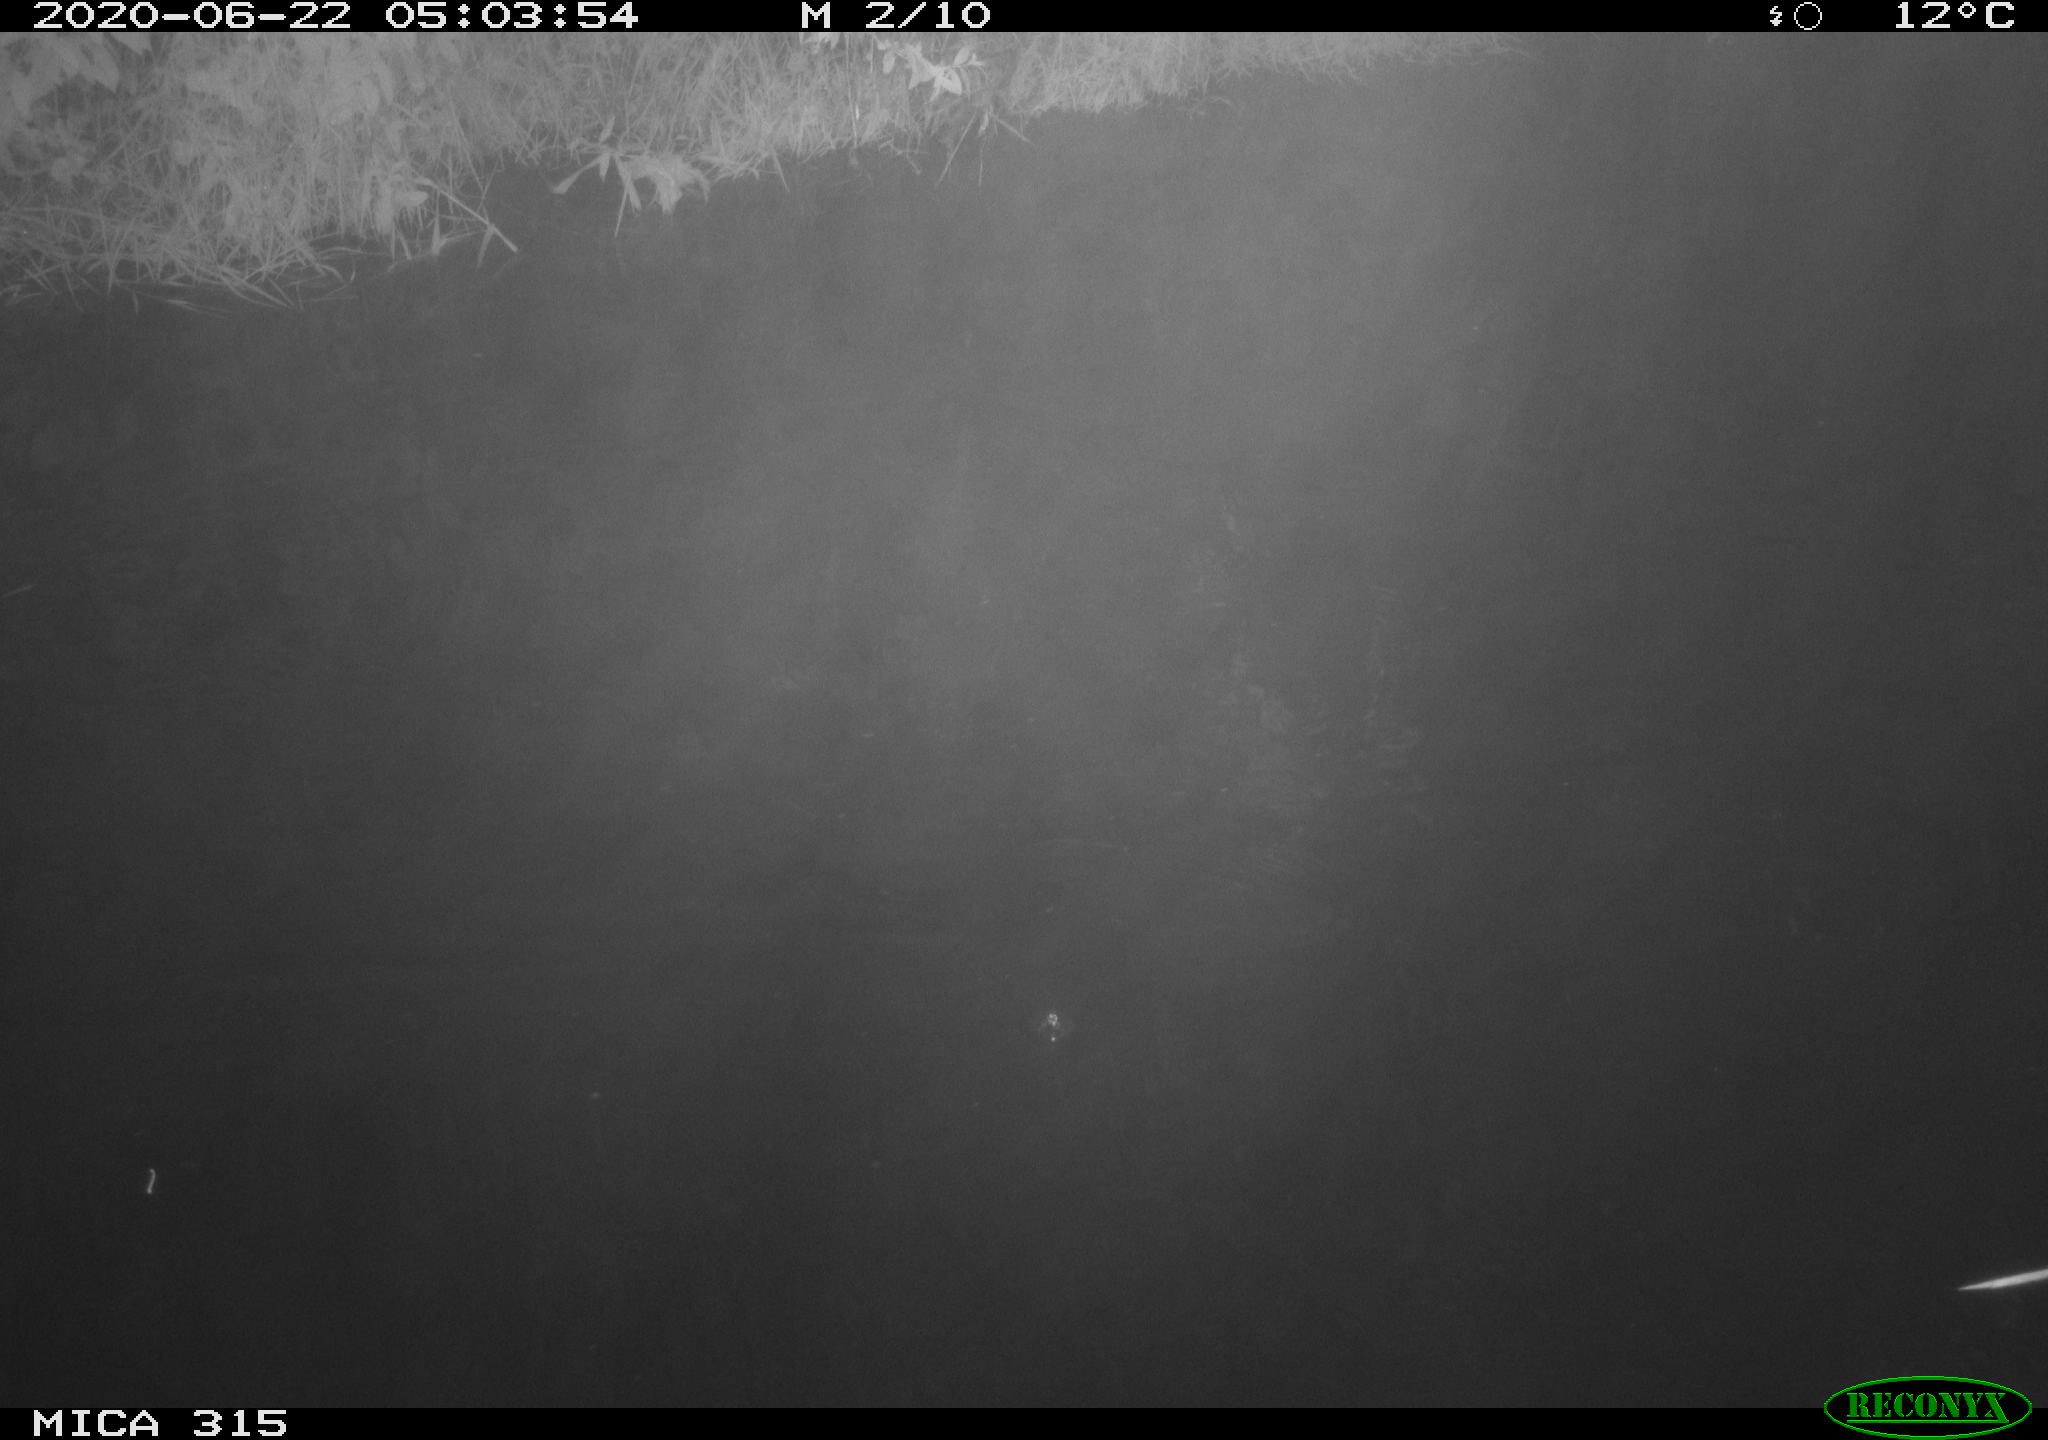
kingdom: Animalia
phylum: Chordata
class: Aves
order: Anseriformes
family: Anatidae
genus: Anas
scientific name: Anas platyrhynchos
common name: Mallard
